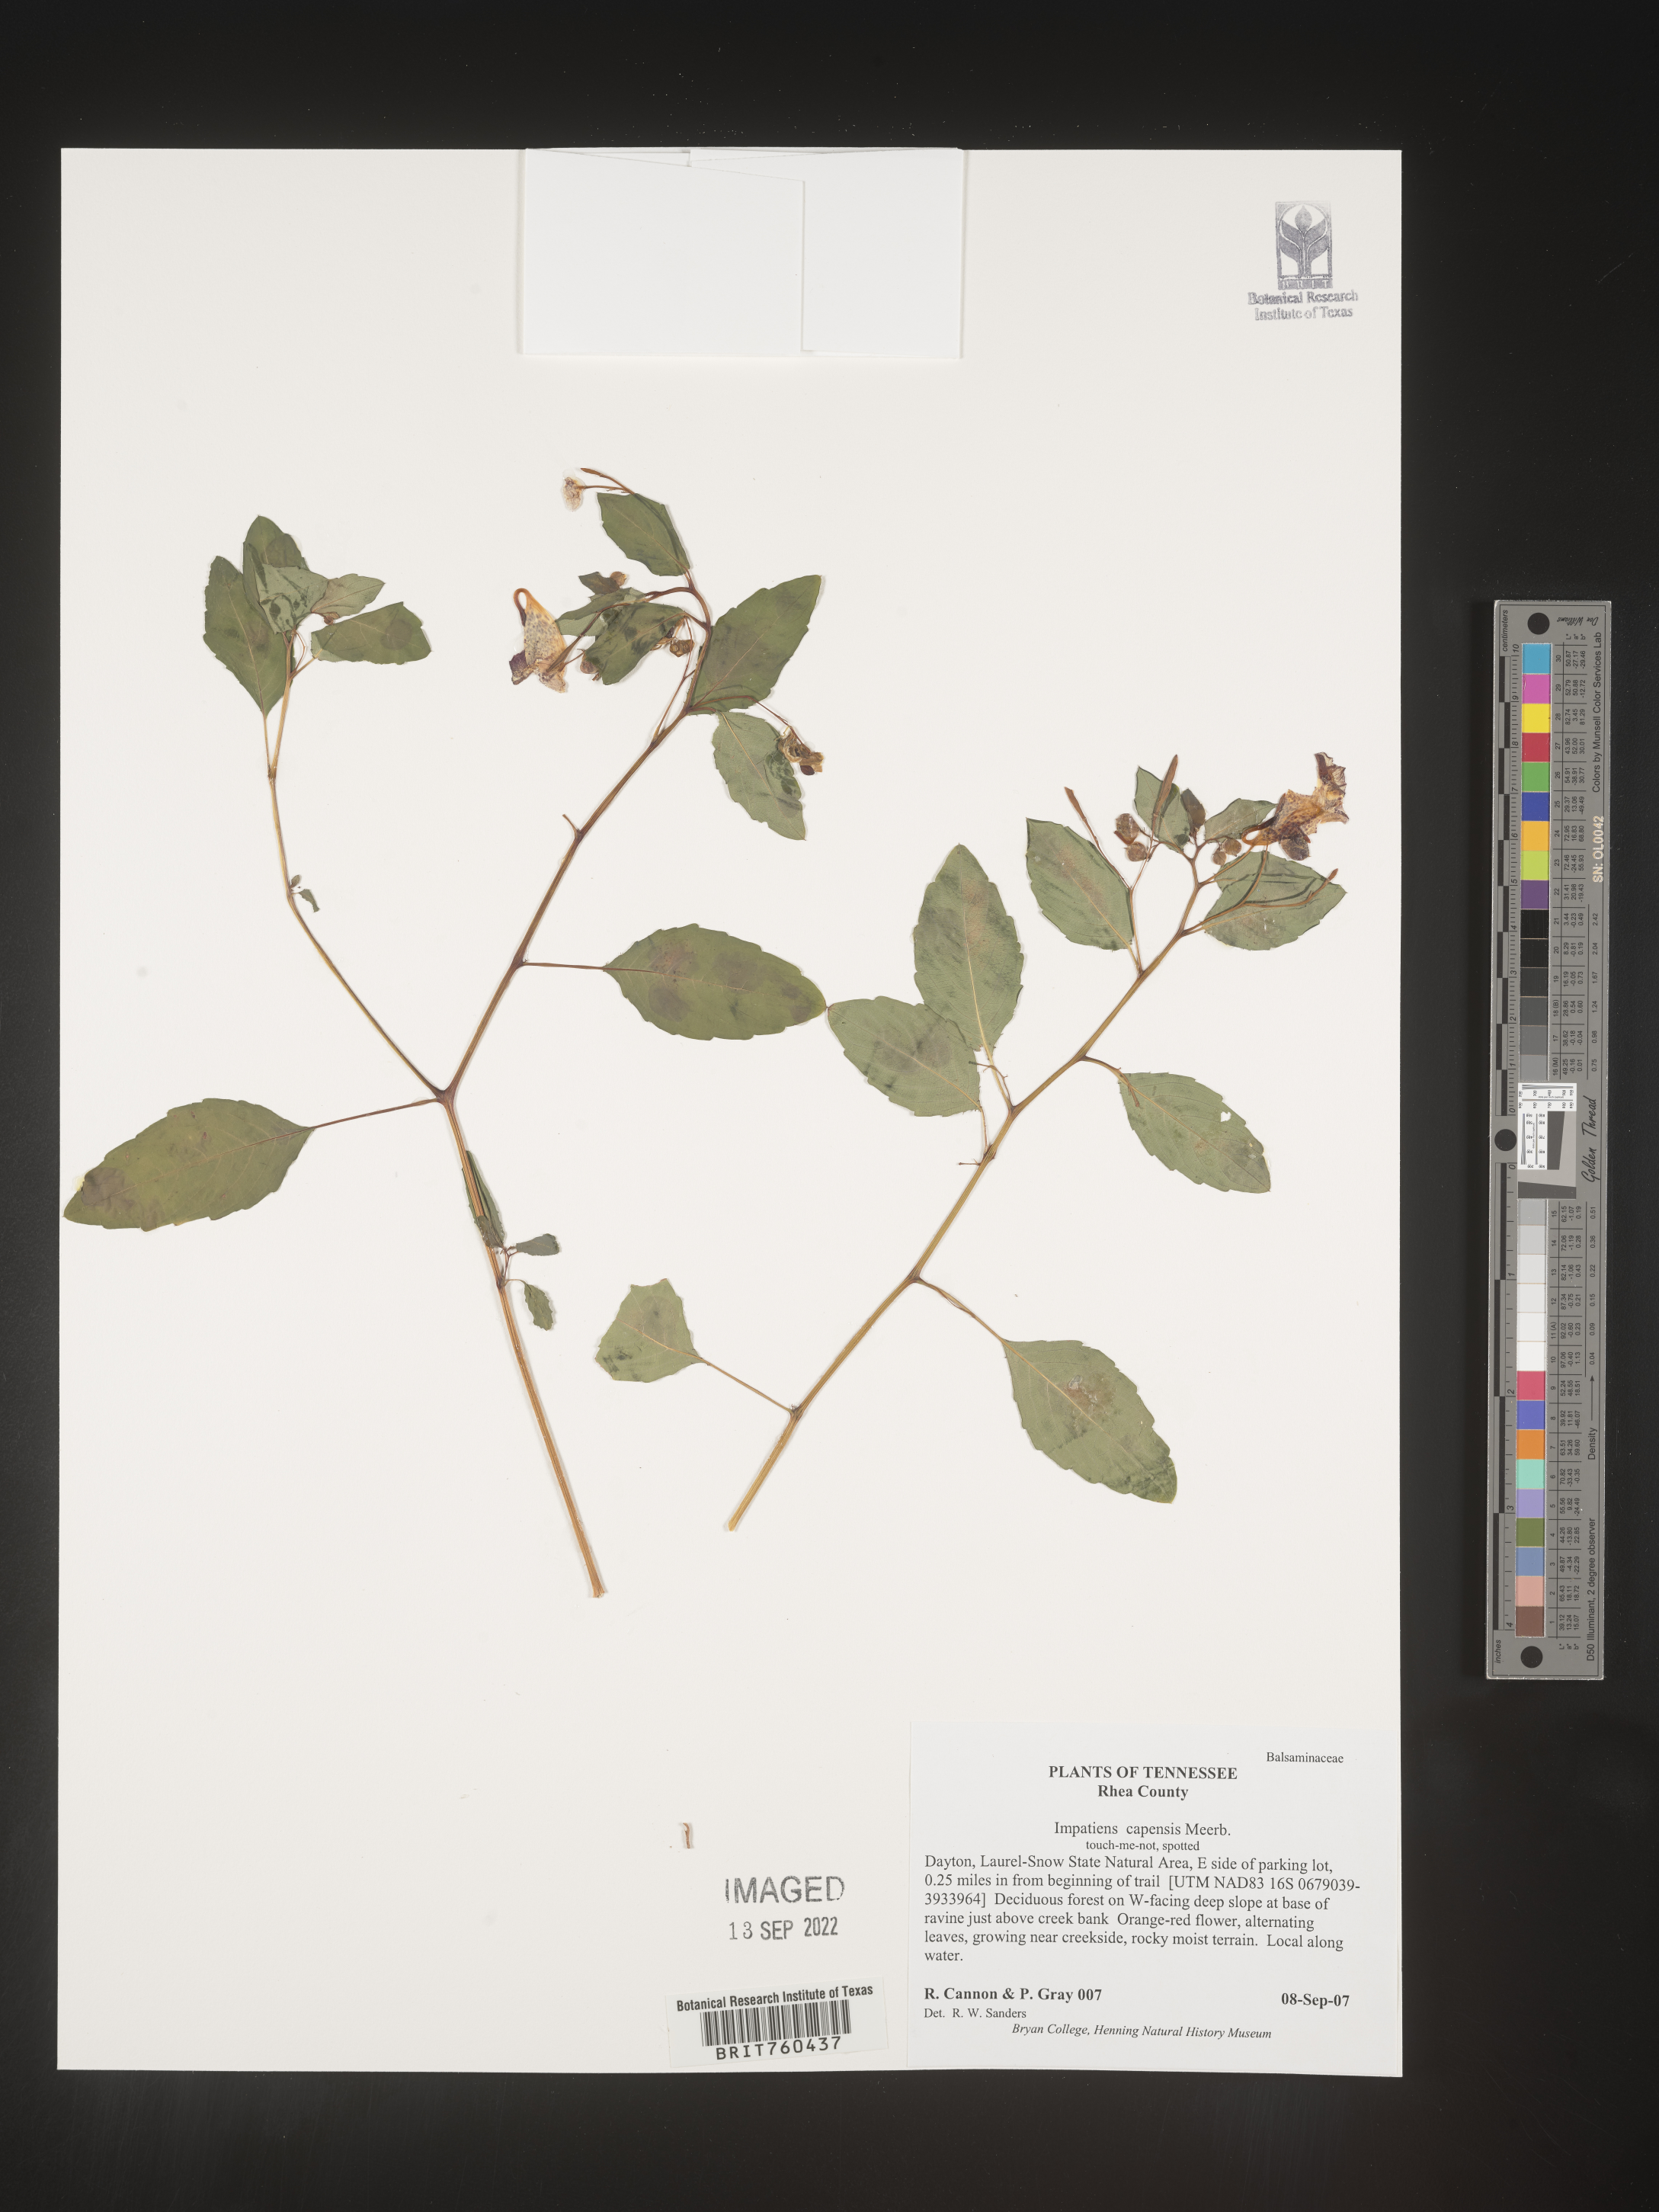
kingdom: Plantae
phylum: Tracheophyta
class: Magnoliopsida
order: Ericales
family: Balsaminaceae
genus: Impatiens
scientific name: Impatiens capensis
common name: Orange balsam
